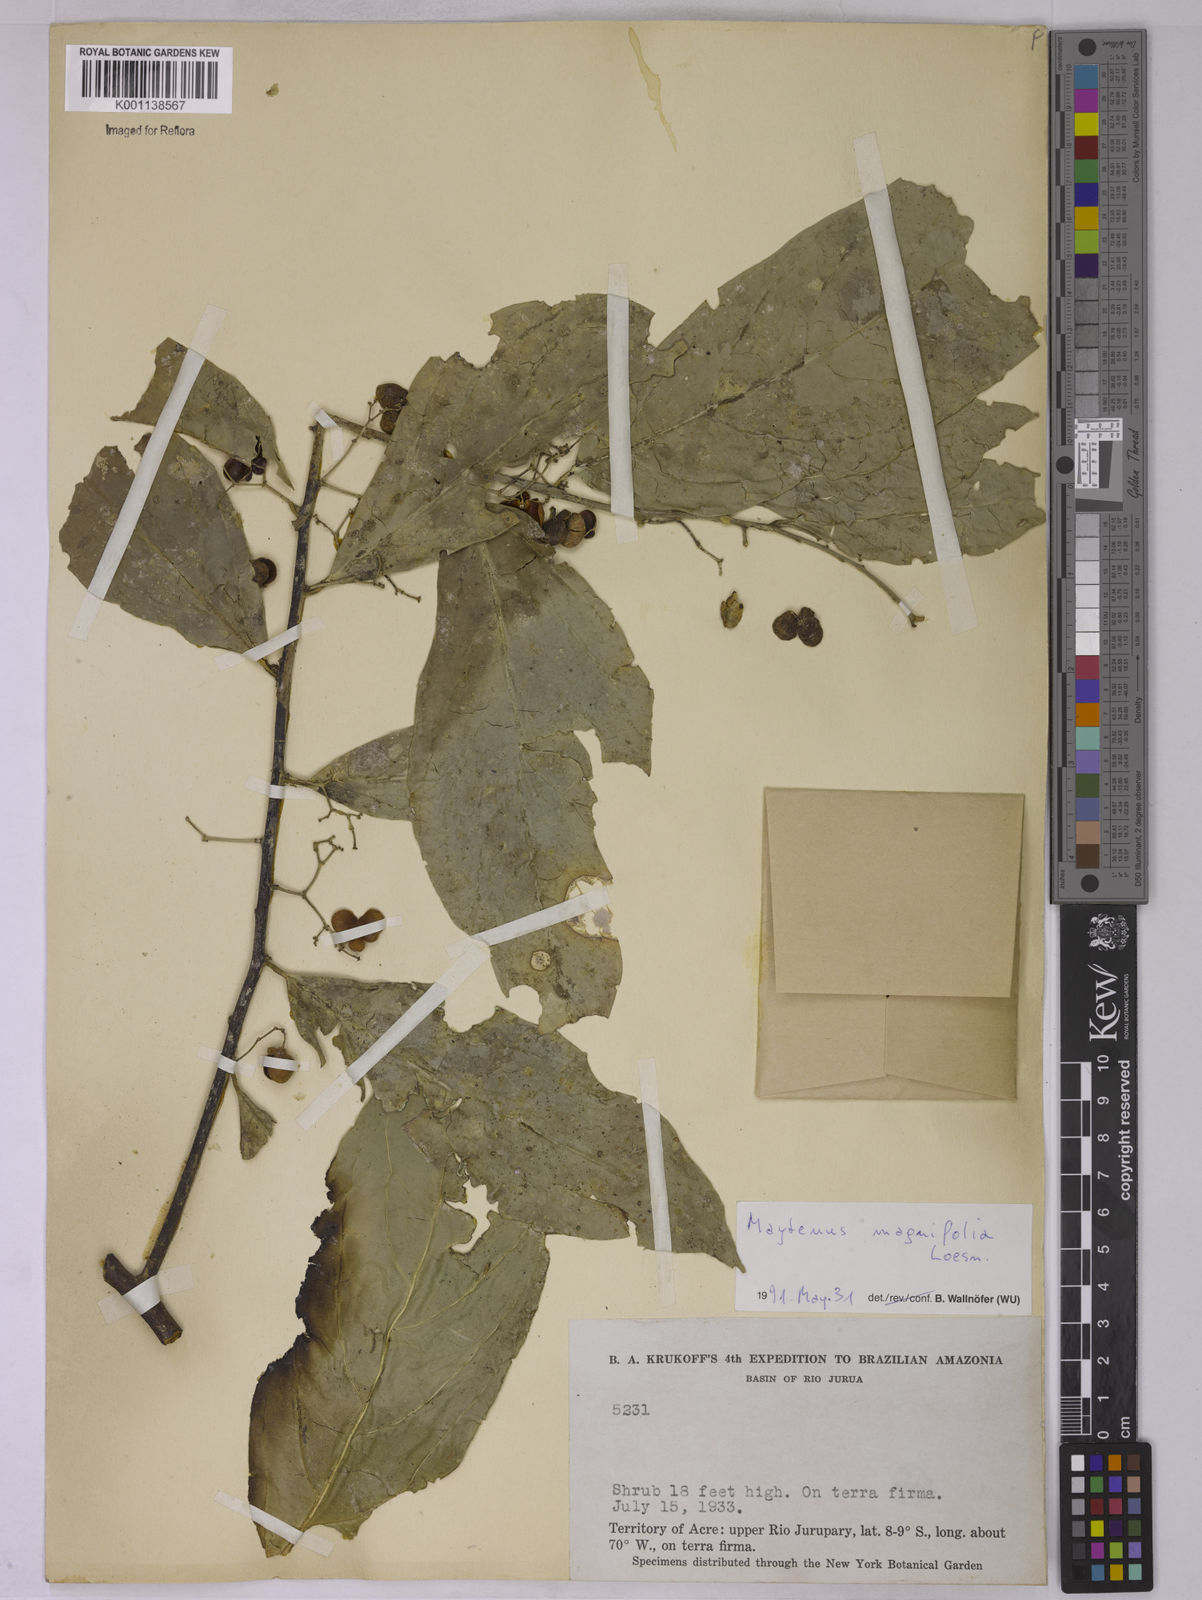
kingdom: Plantae
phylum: Tracheophyta
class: Magnoliopsida
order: Celastrales
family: Celastraceae
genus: Haydenoxylon
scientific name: Haydenoxylon urbanianum
